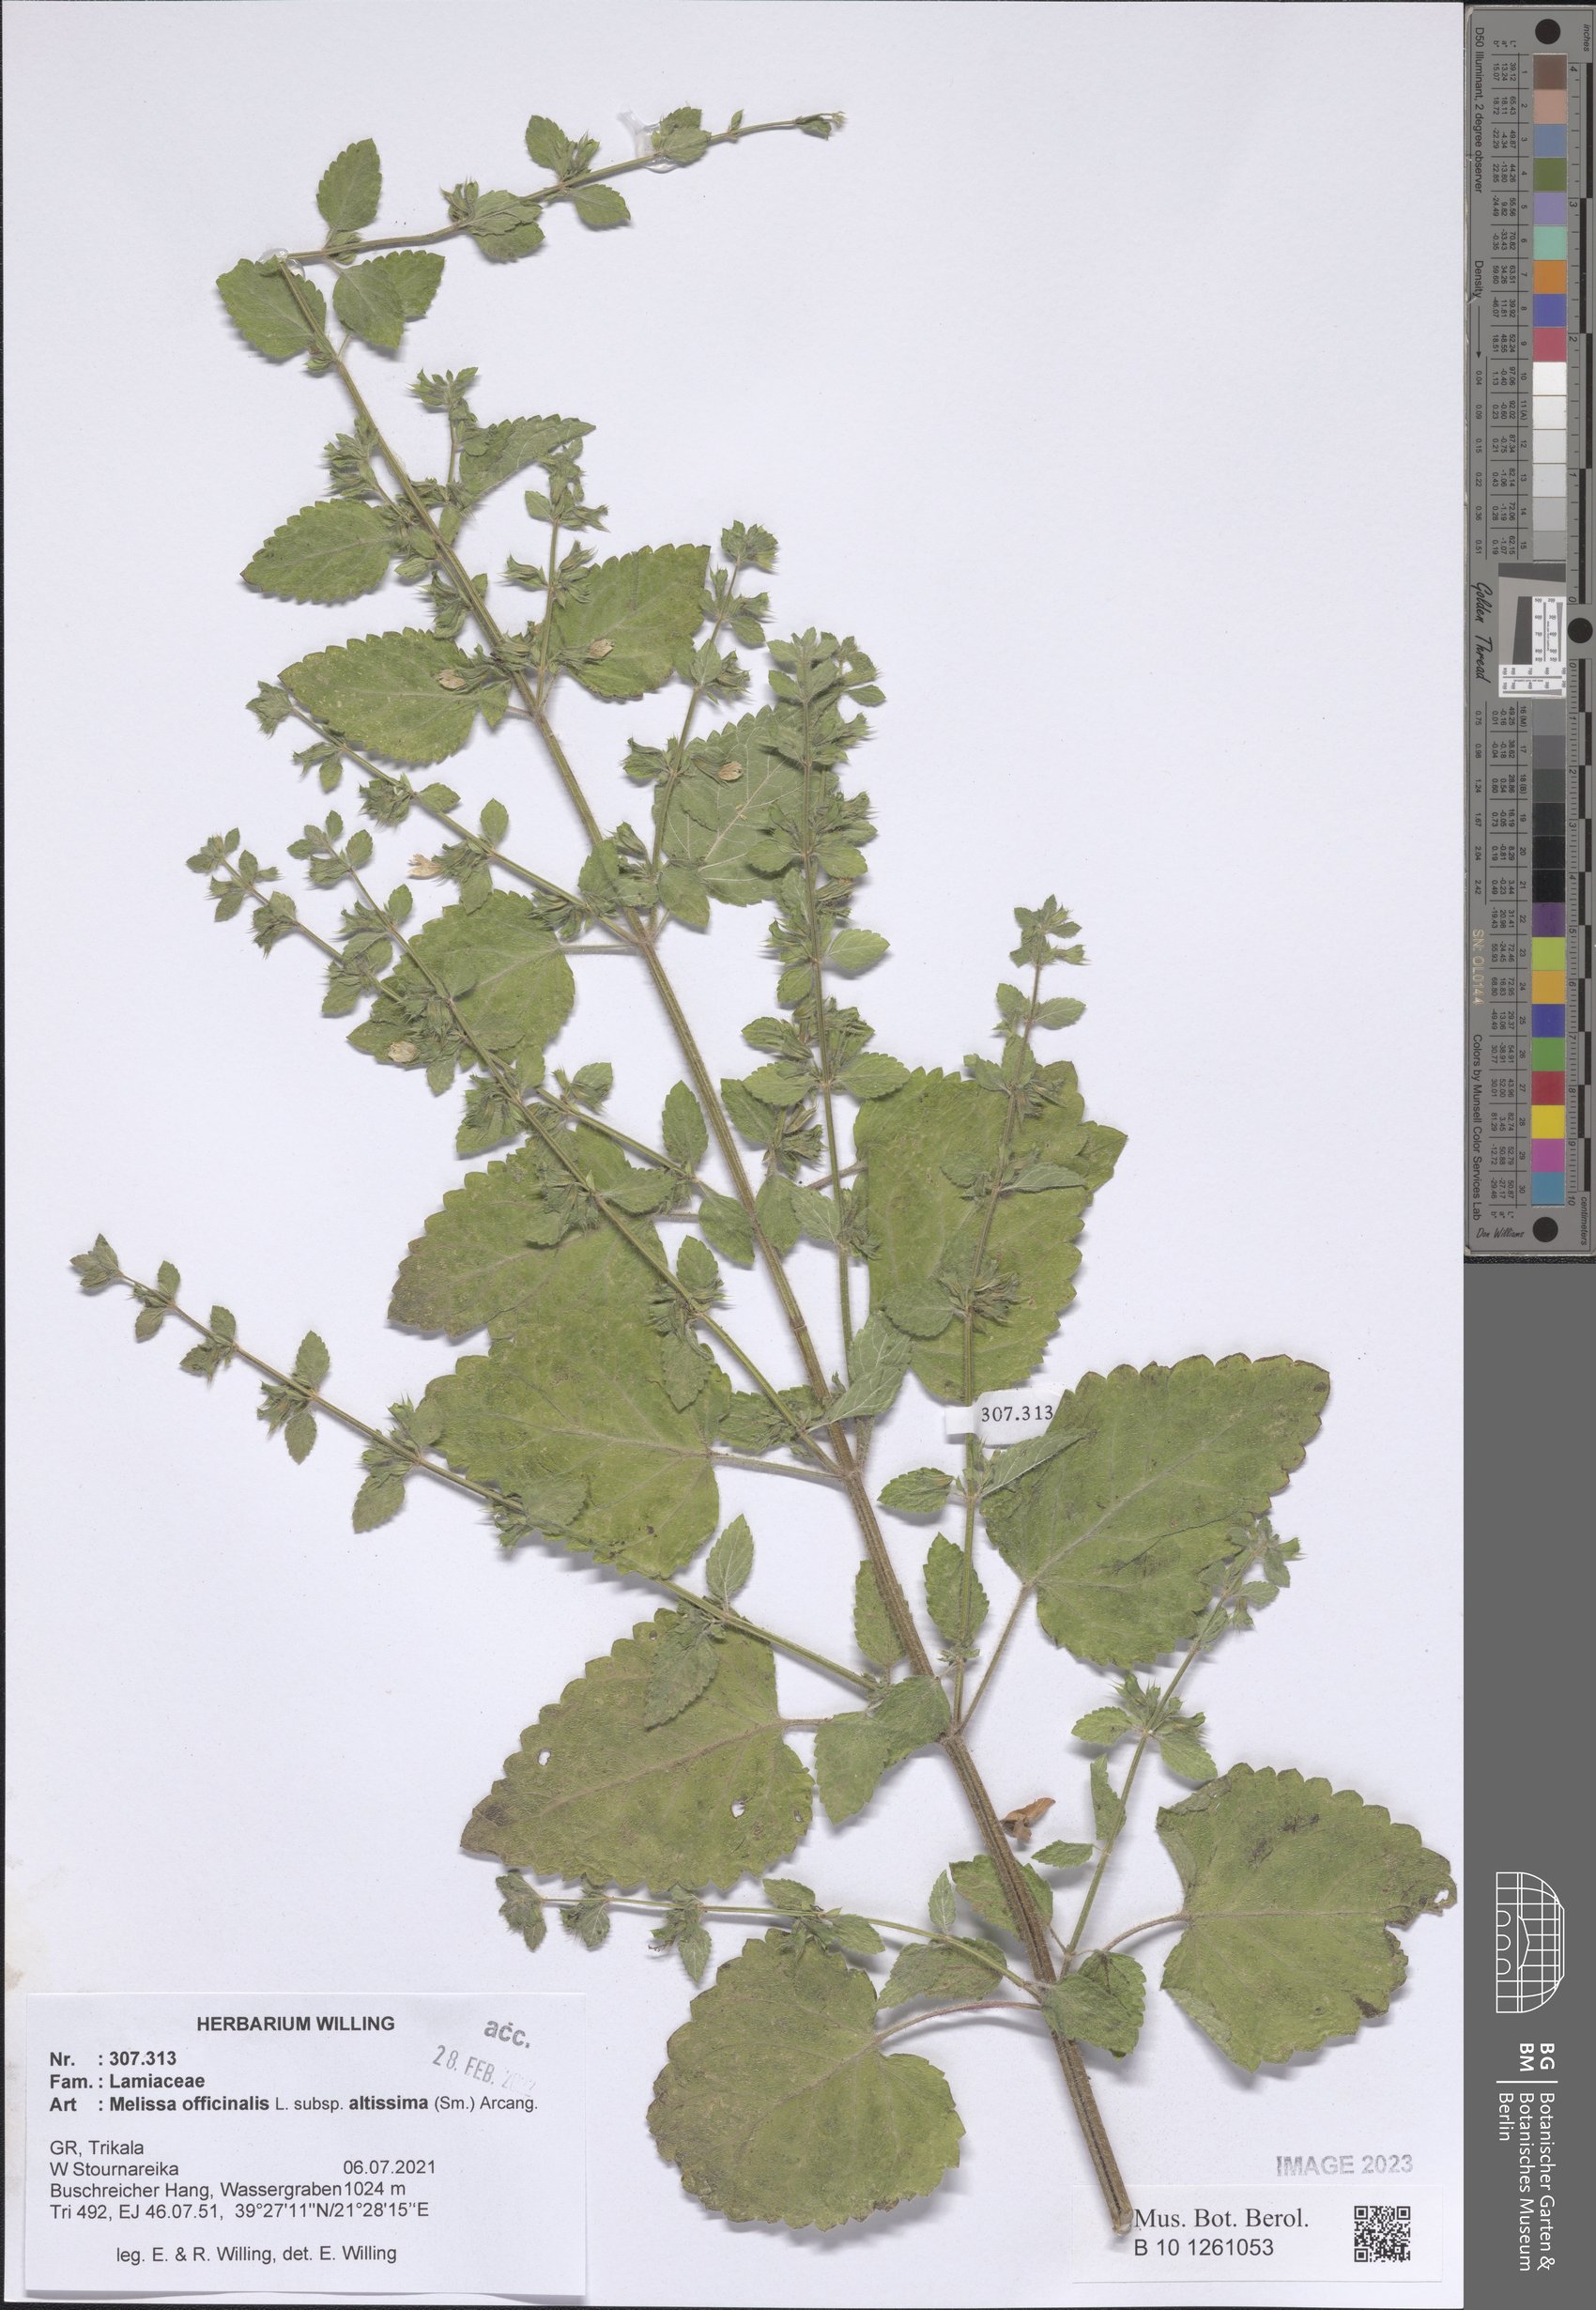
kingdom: Plantae
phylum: Tracheophyta
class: Magnoliopsida
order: Lamiales
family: Lamiaceae
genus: Melissa
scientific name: Melissa officinalis
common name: Balm
